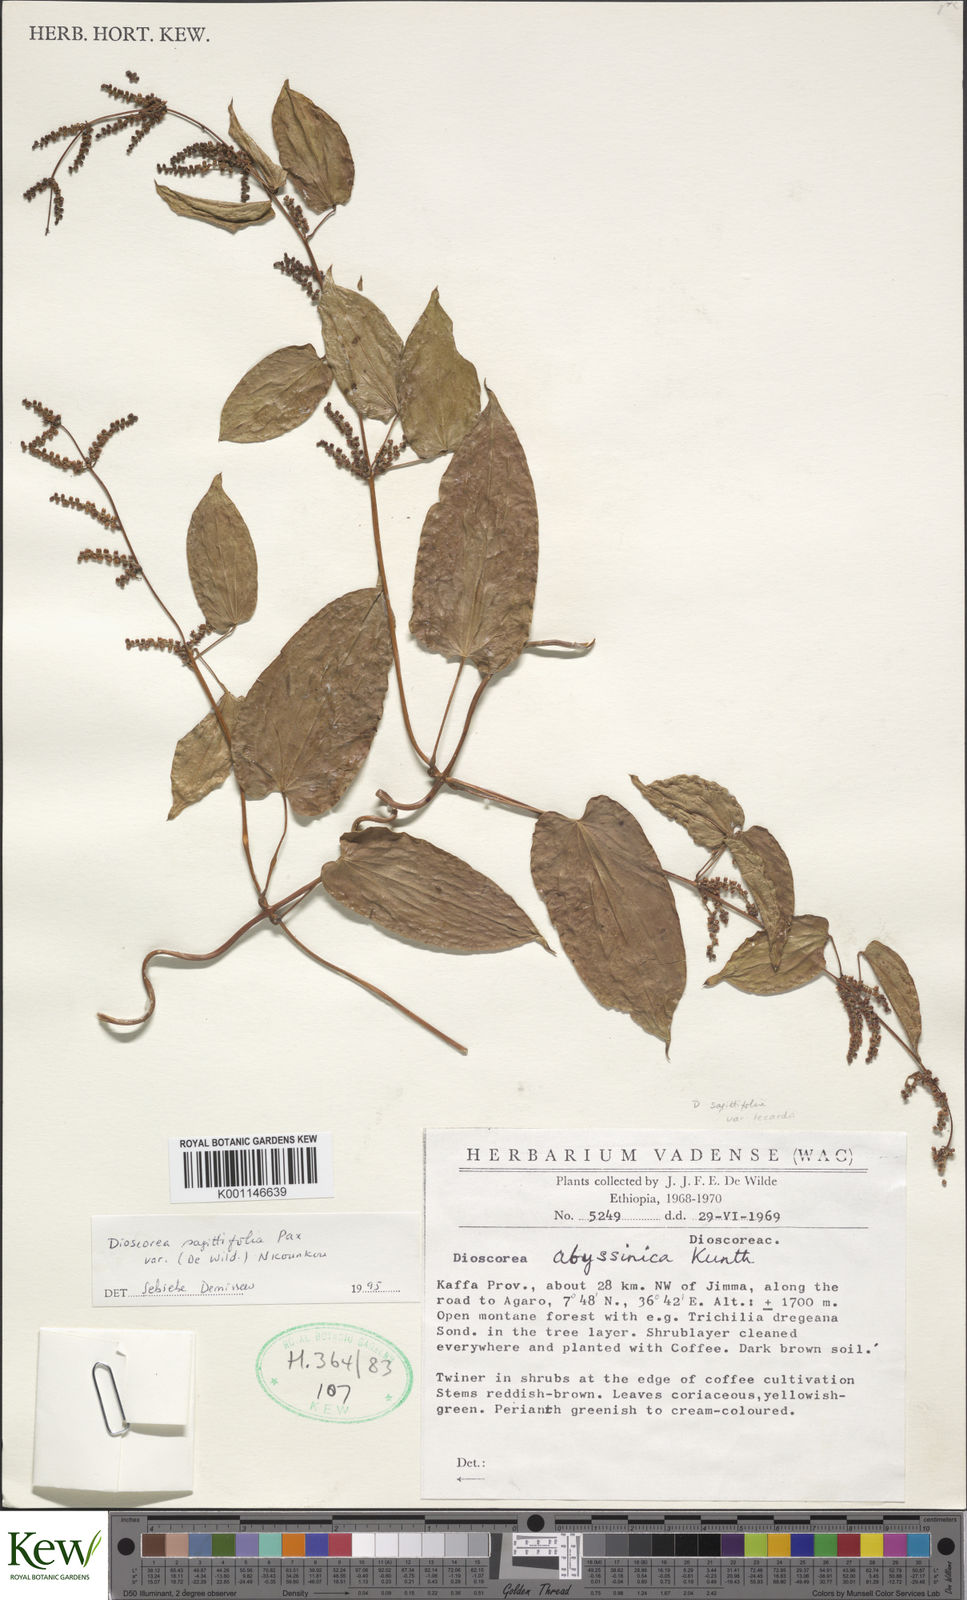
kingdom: Plantae
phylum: Tracheophyta
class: Liliopsida
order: Dioscoreales
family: Dioscoreaceae
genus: Dioscorea
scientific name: Dioscorea sagittifolia
